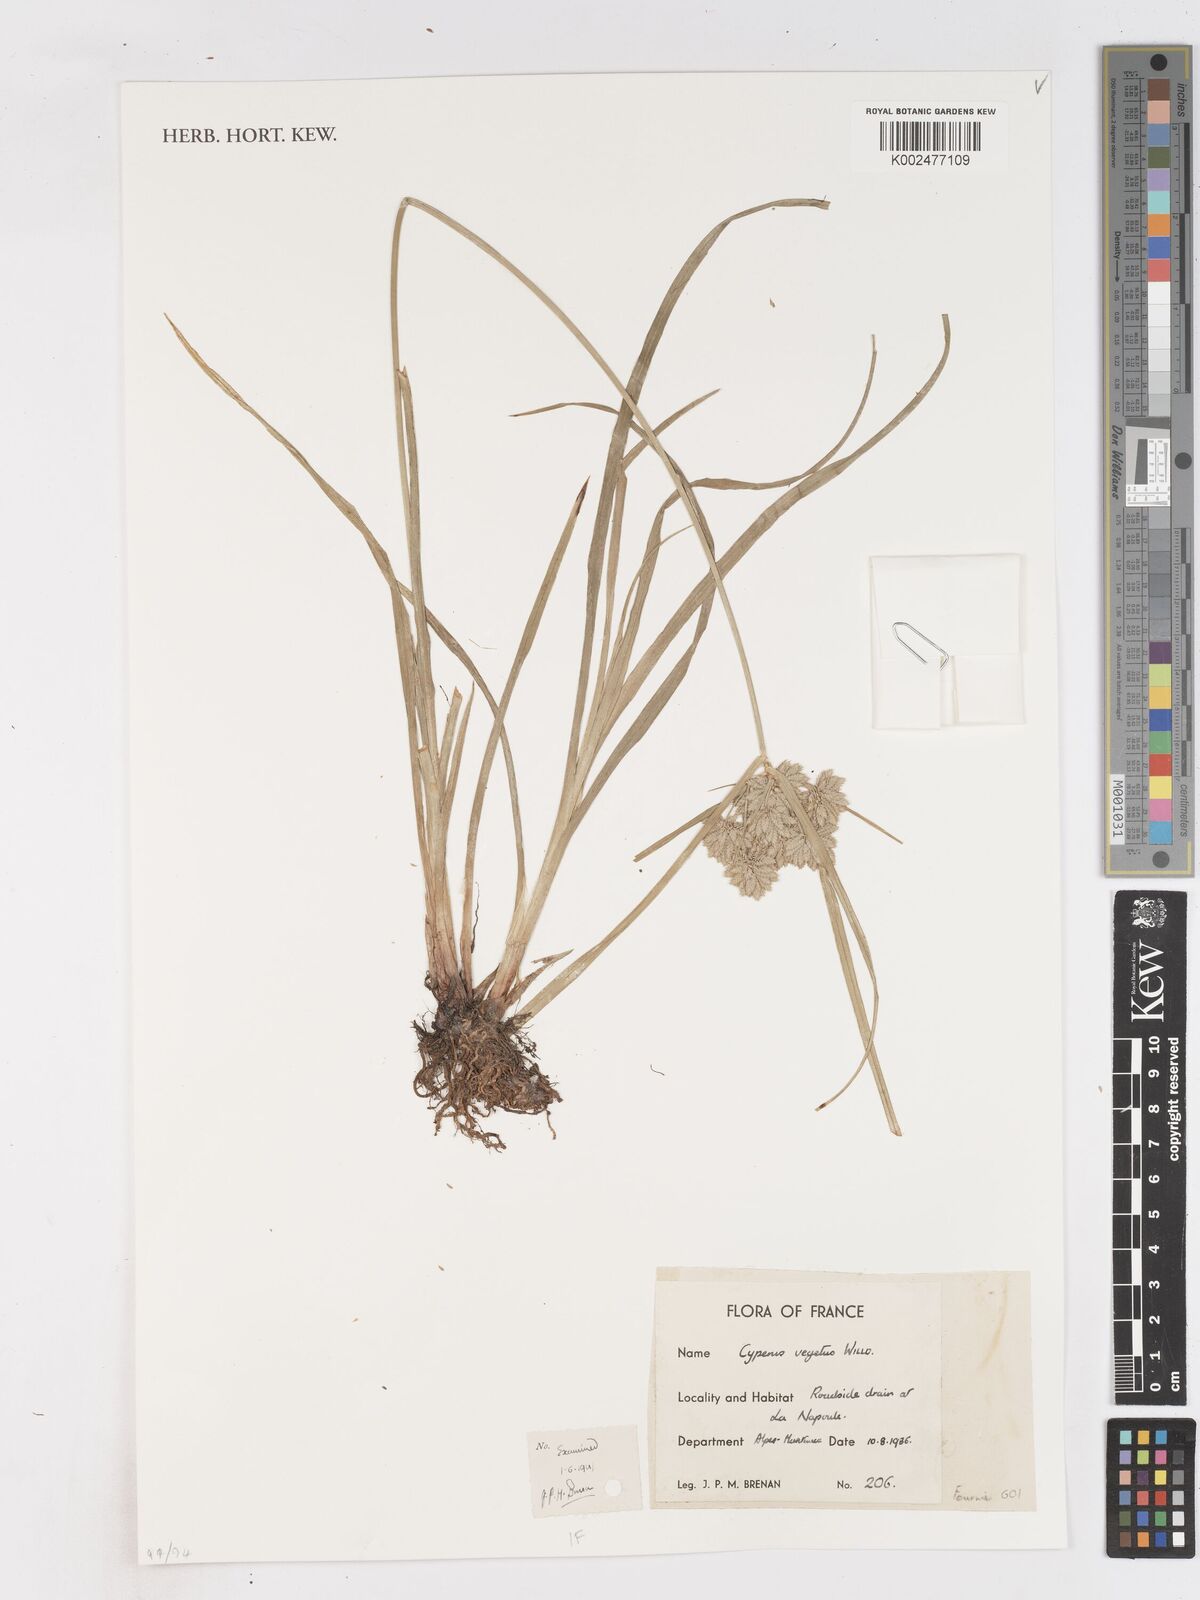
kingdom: Plantae
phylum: Tracheophyta
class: Liliopsida
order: Poales
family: Cyperaceae
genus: Cyperus
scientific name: Cyperus eragrostis
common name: Tall flatsedge
